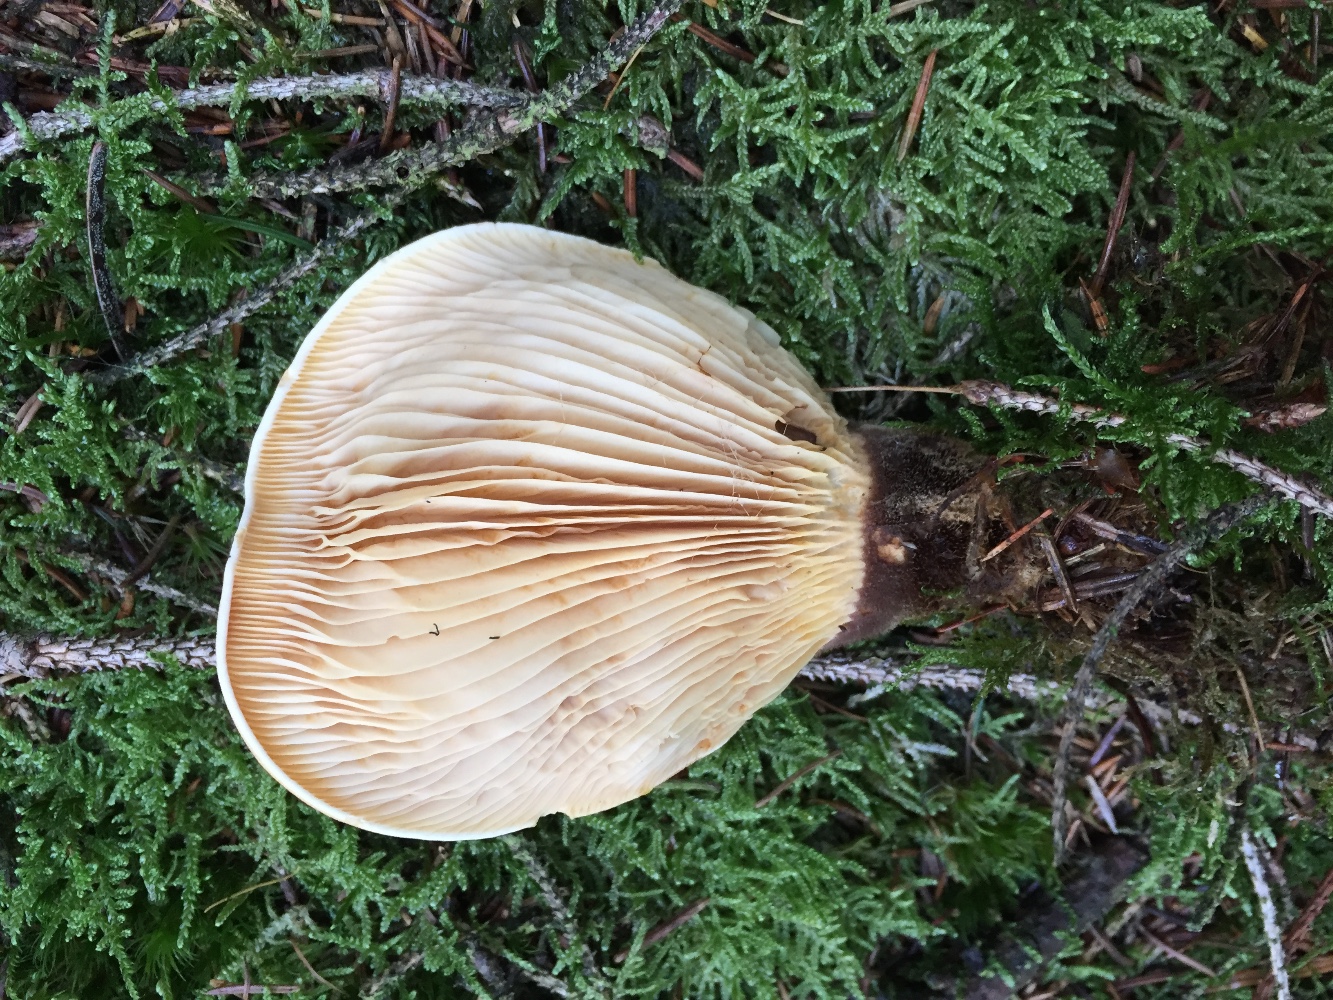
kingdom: Fungi
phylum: Basidiomycota
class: Agaricomycetes
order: Boletales
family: Tapinellaceae
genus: Tapinella
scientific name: Tapinella atrotomentosa
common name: sortfiltet viftesvamp
